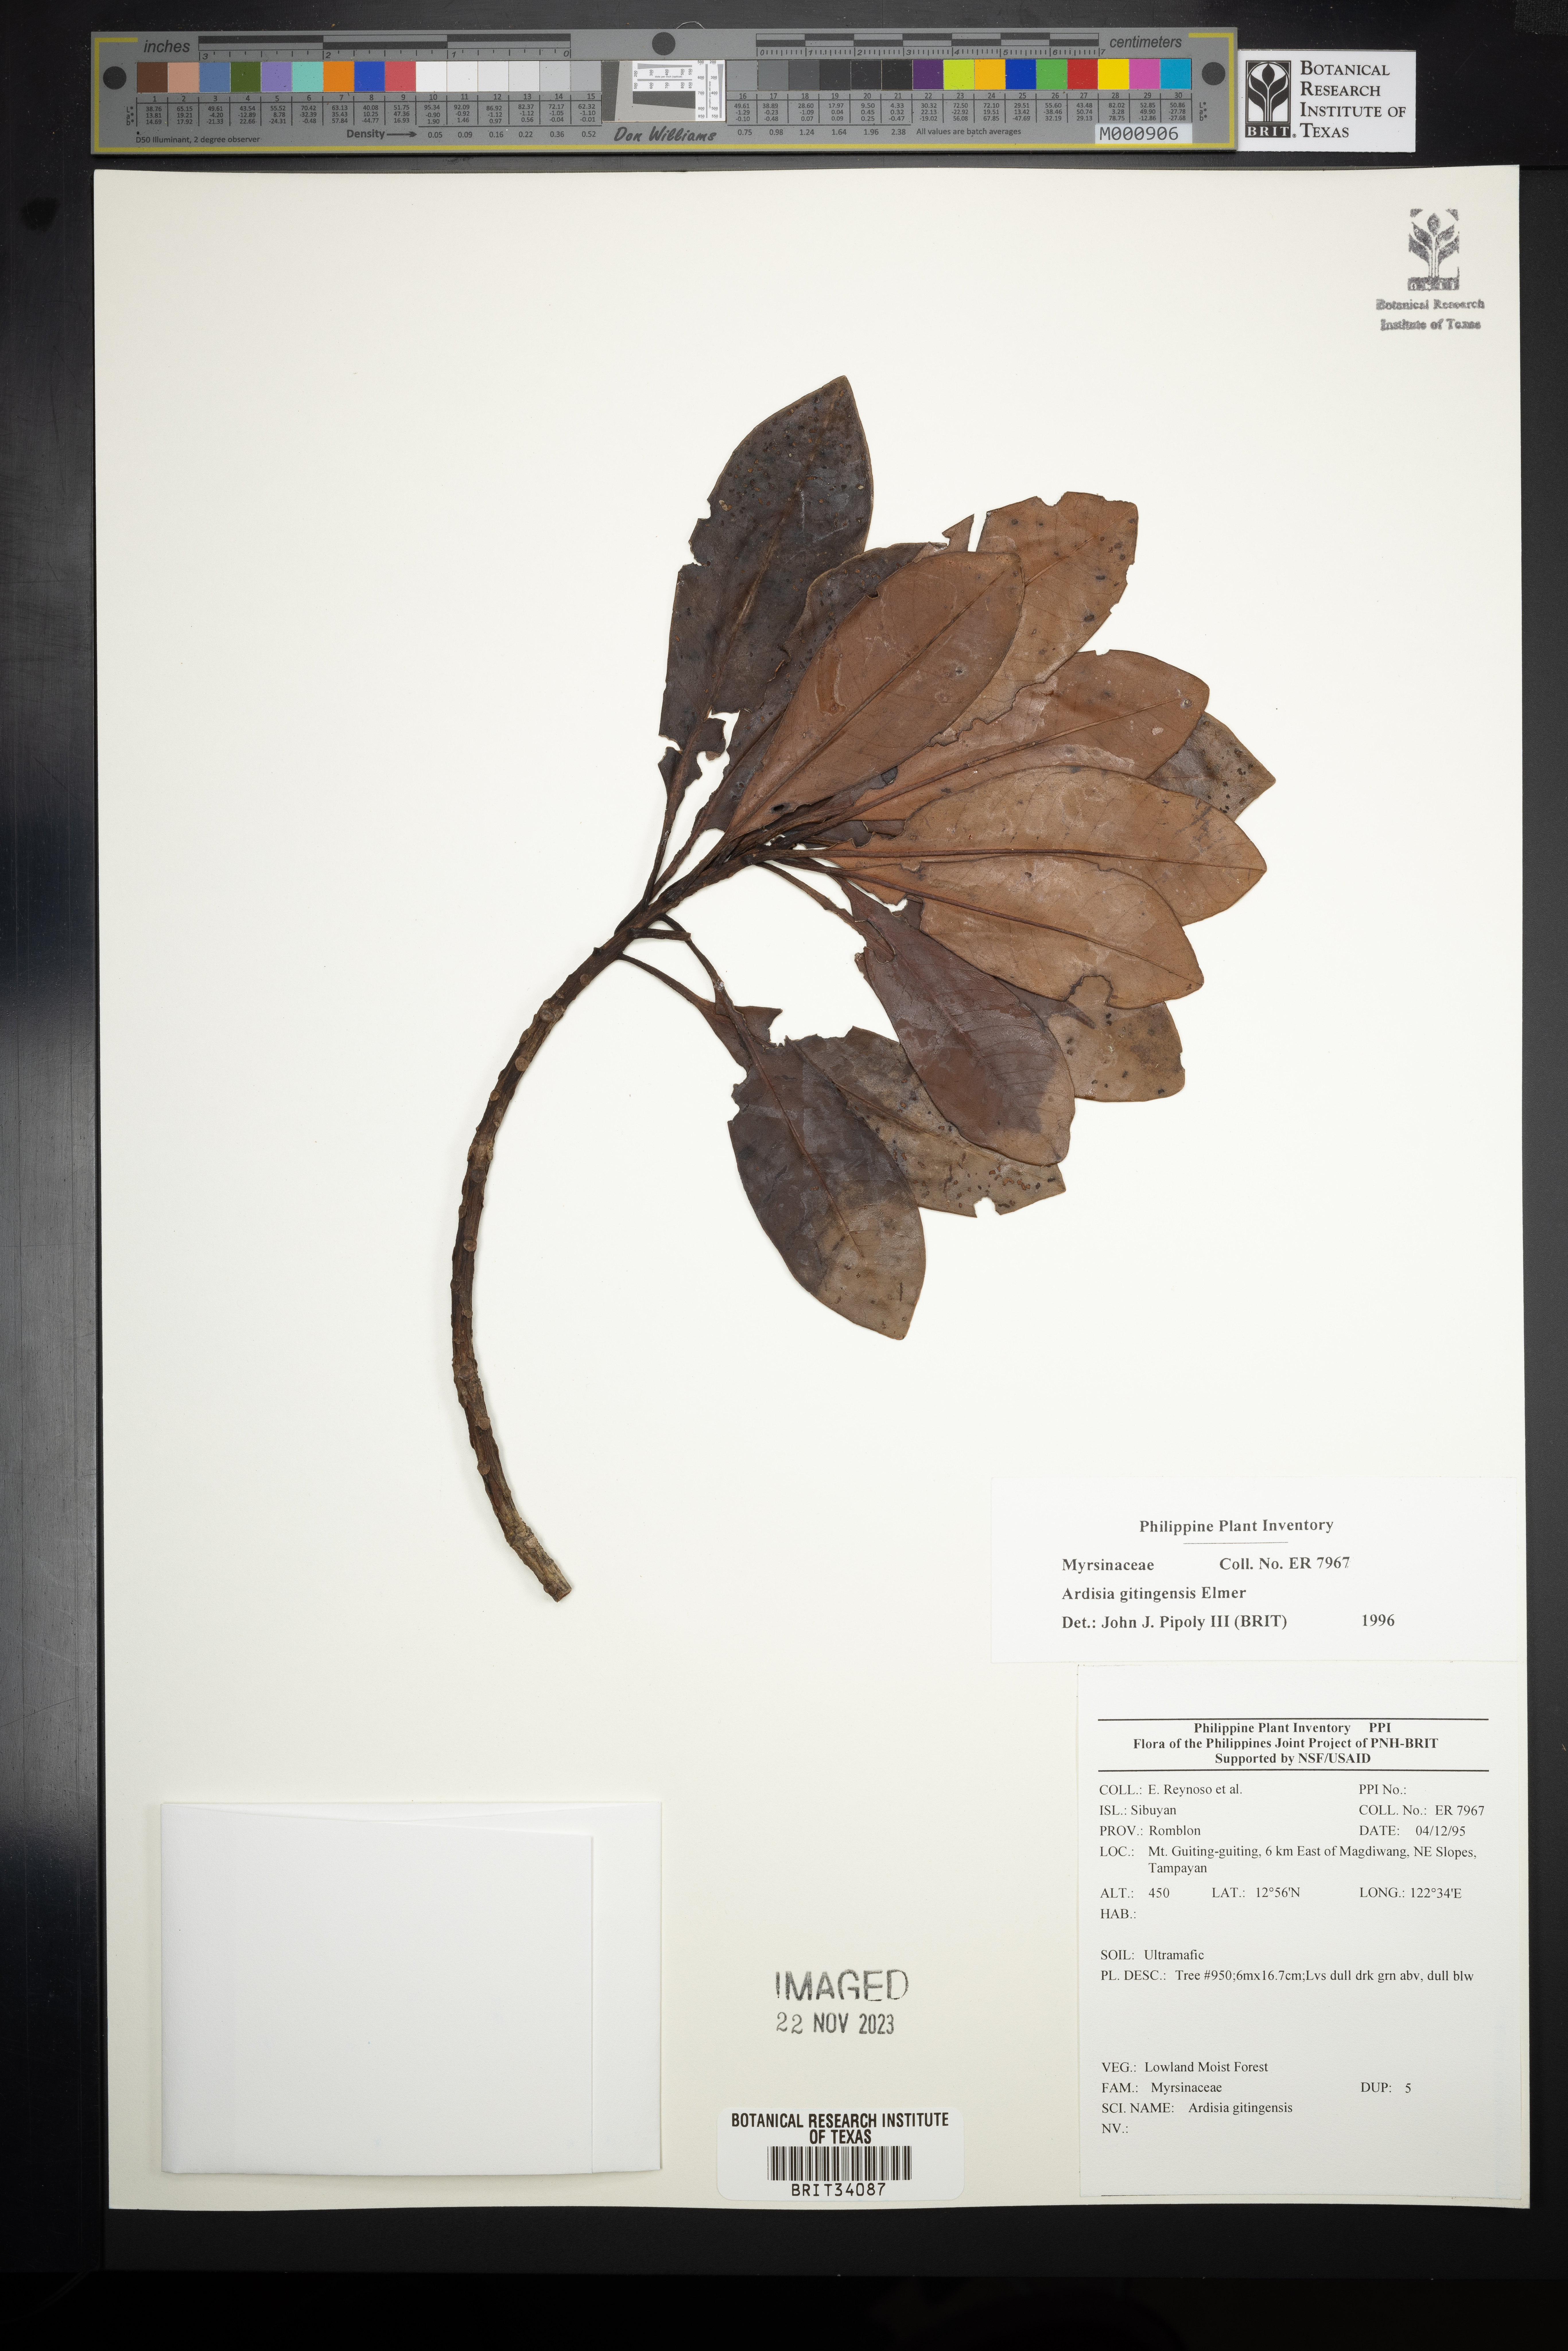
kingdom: Plantae
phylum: Tracheophyta
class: Magnoliopsida
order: Ericales
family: Primulaceae
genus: Ardisia
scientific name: Ardisia darlingii
